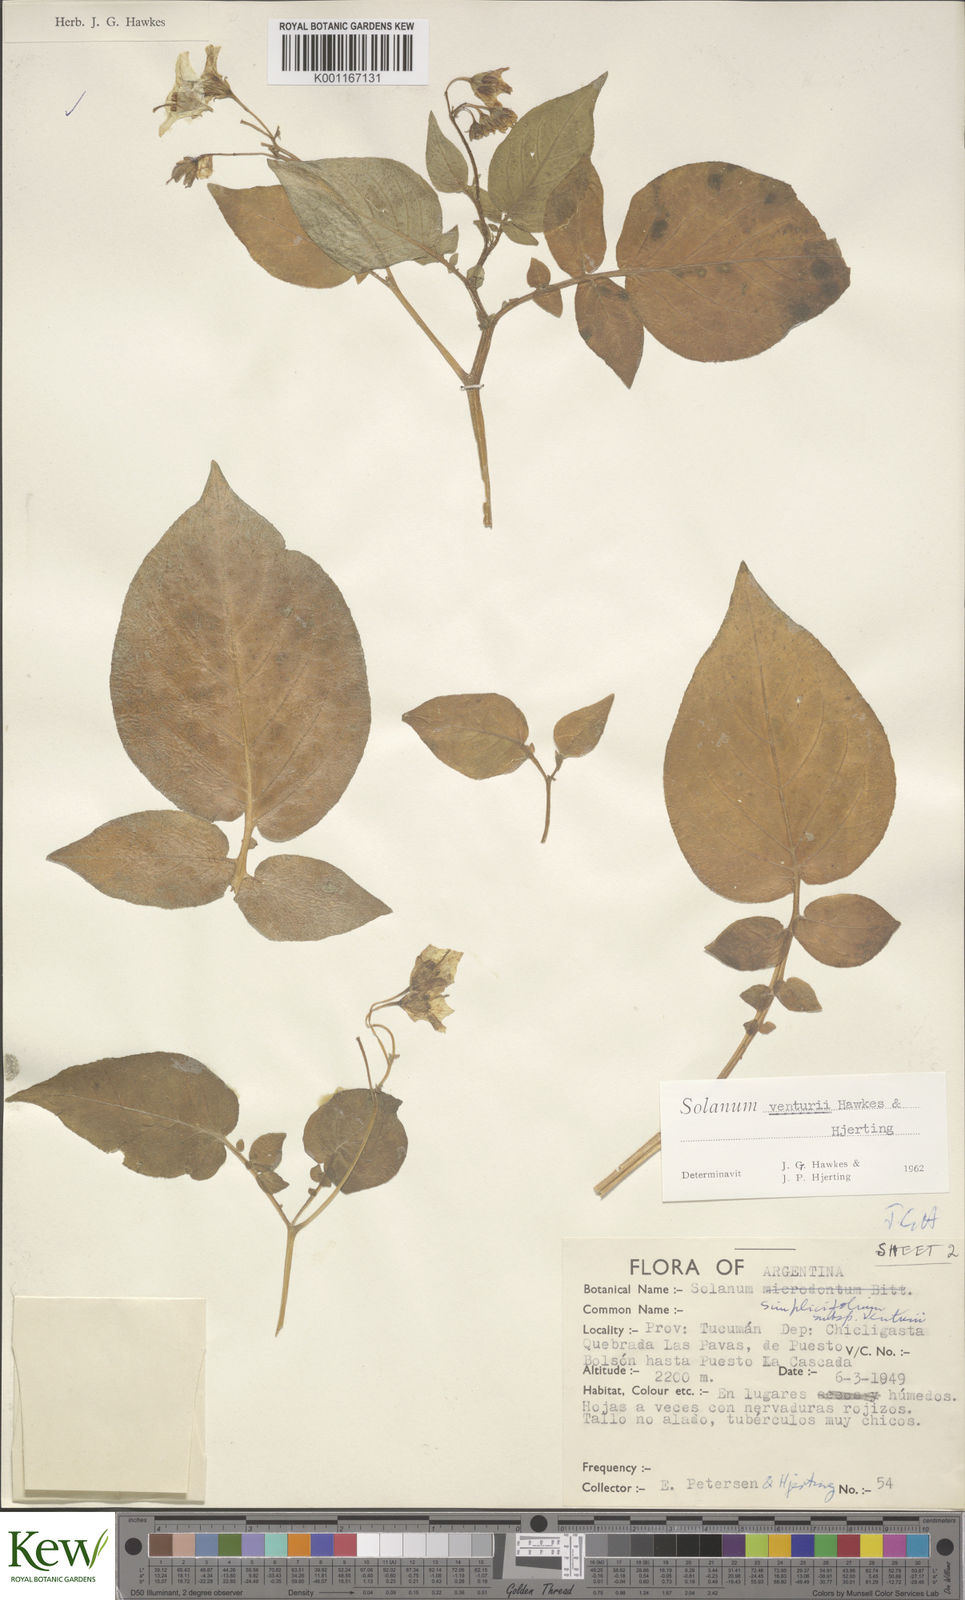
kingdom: Plantae
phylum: Tracheophyta
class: Magnoliopsida
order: Solanales
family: Solanaceae
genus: Solanum
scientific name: Solanum venturii
